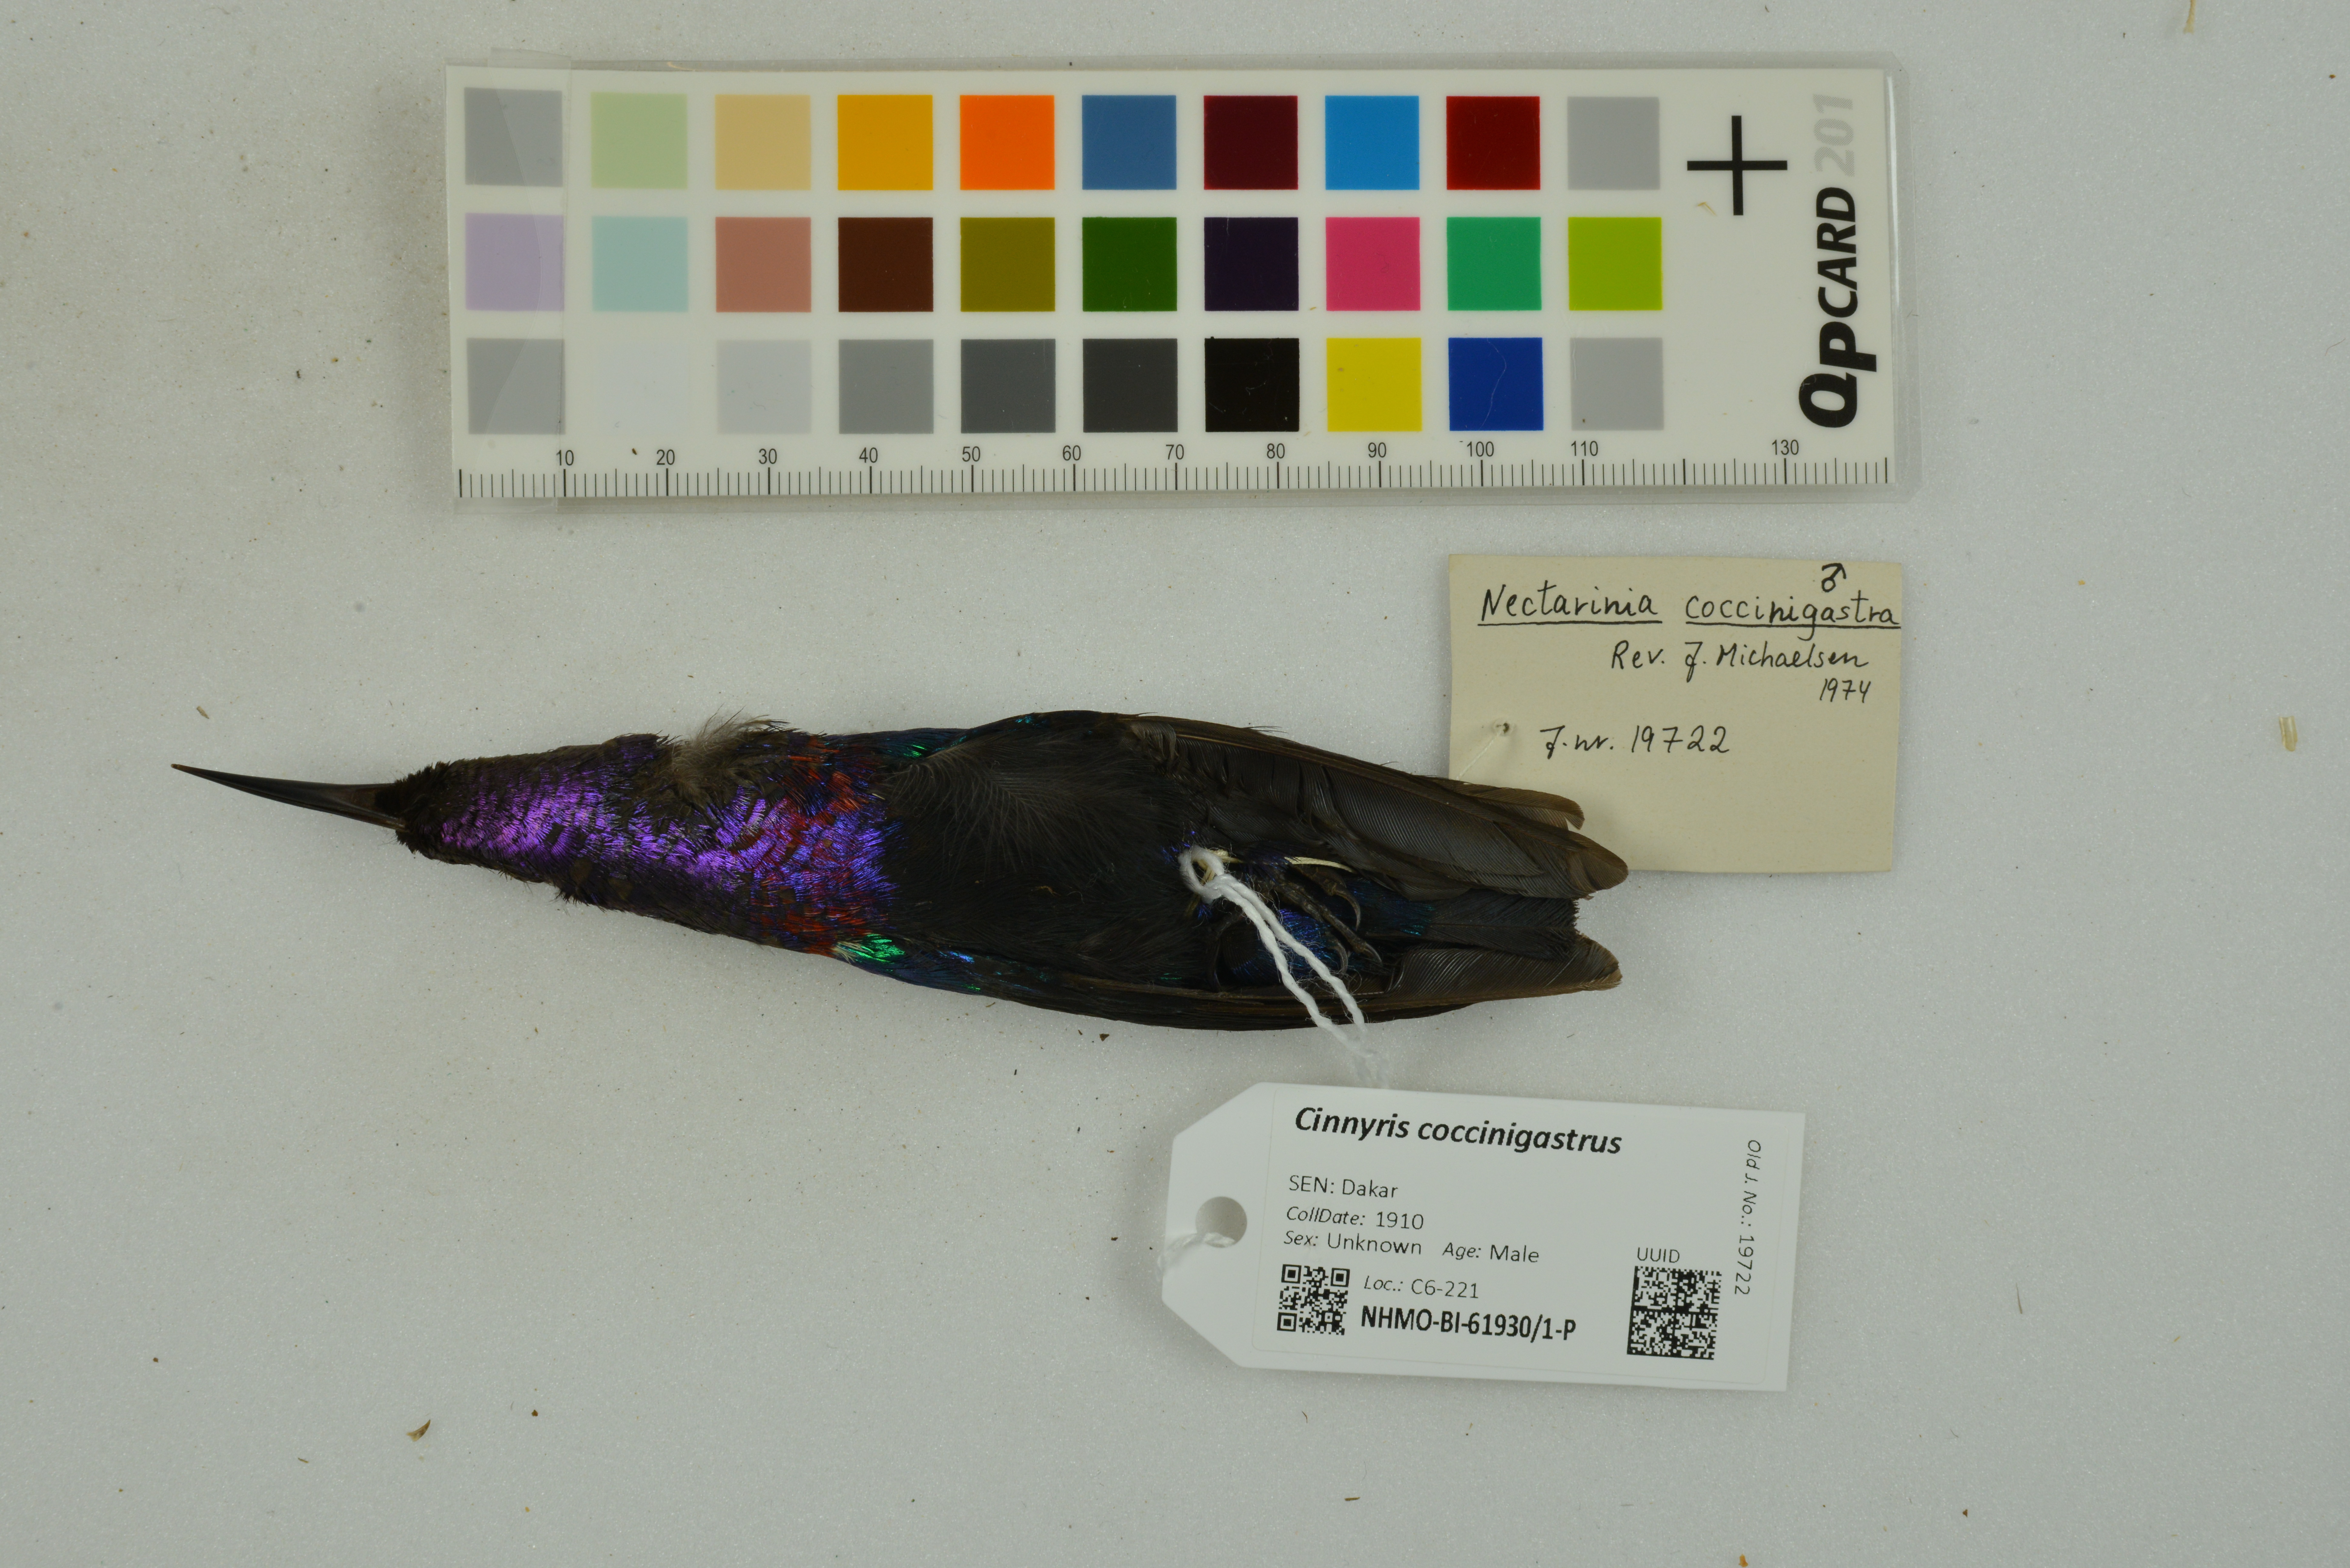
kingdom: Animalia
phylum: Chordata
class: Aves
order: Passeriformes
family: Nectariniidae
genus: Cinnyris
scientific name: Cinnyris coccinigastrus
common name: Splendid sunbird
